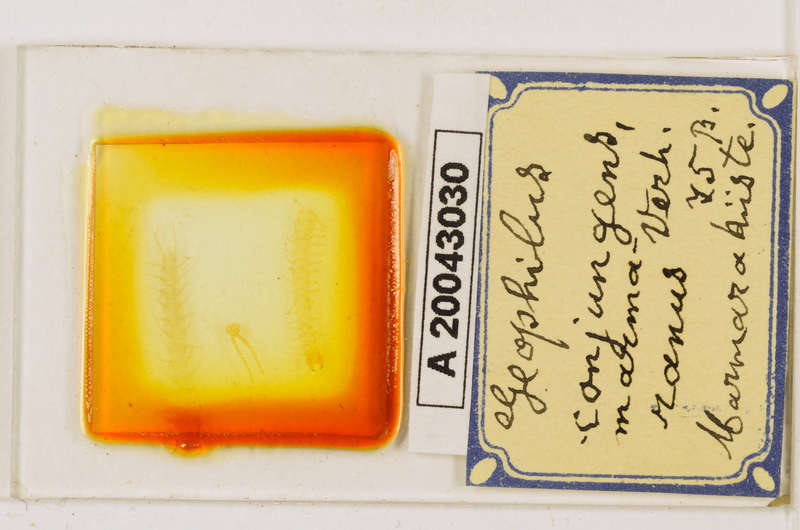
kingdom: Animalia
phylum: Arthropoda
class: Chilopoda
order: Geophilomorpha
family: Geophilidae
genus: Geophilus
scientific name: Geophilus conjungens
